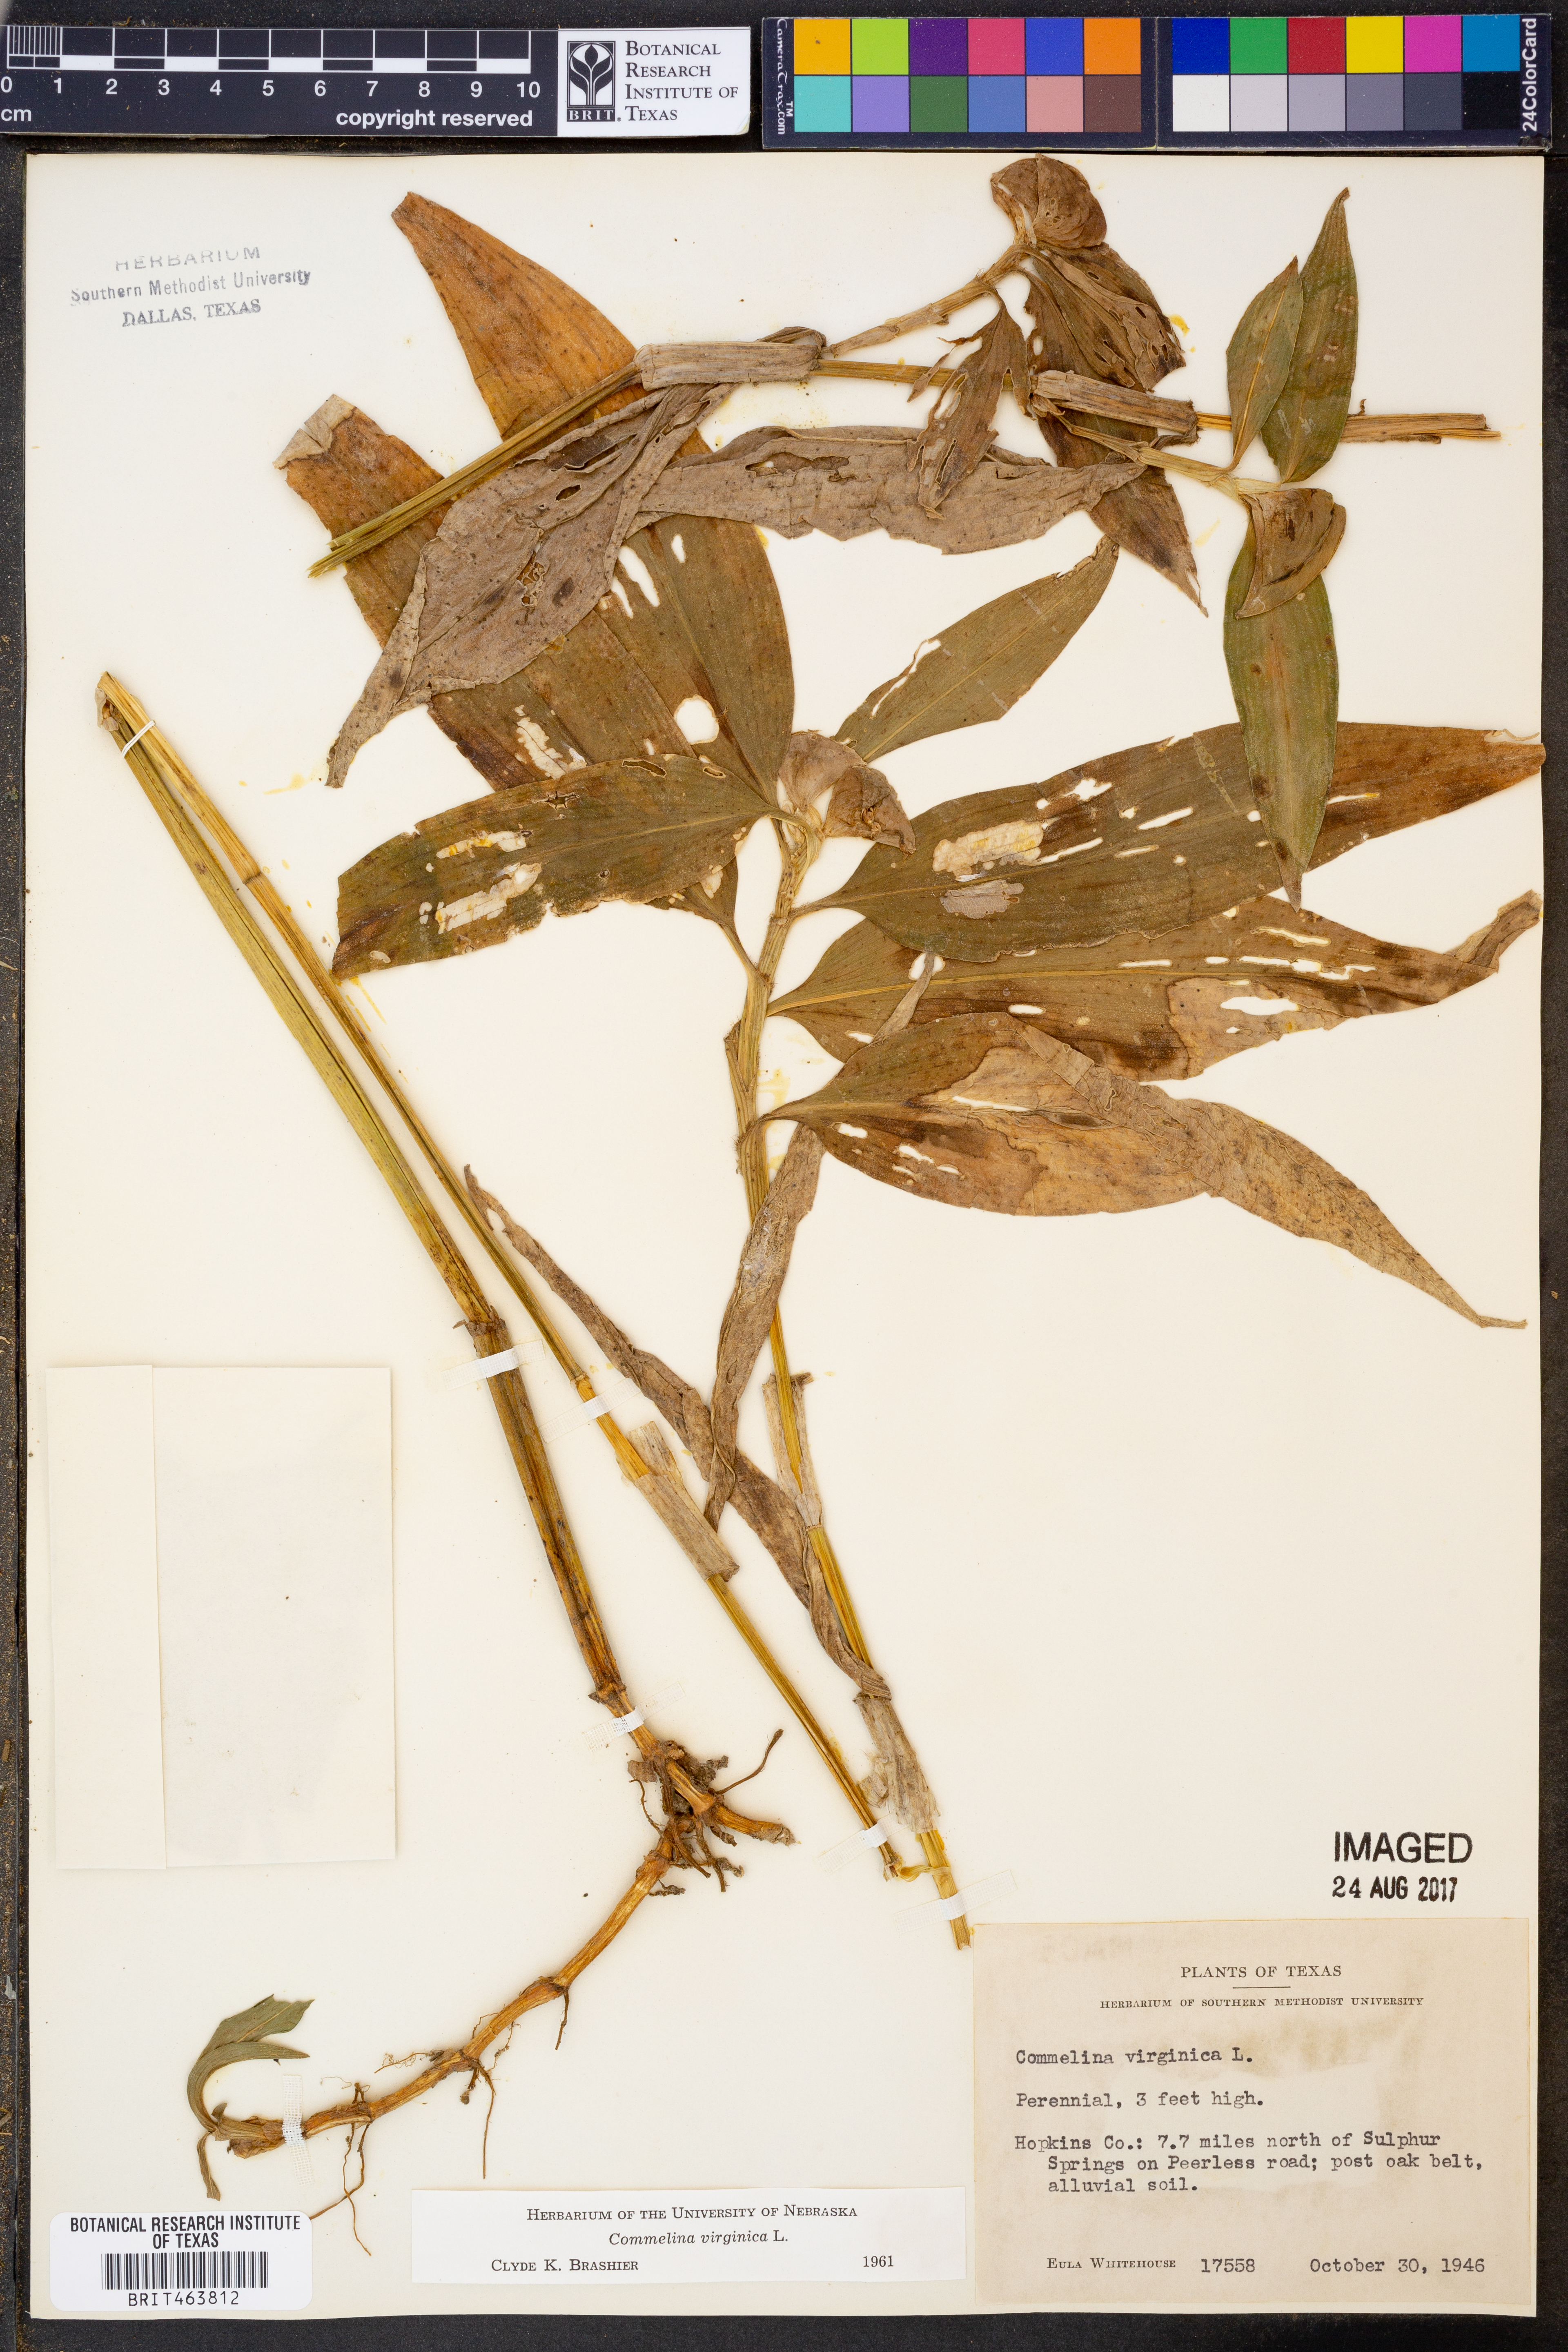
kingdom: Plantae
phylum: Tracheophyta
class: Liliopsida
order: Commelinales
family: Commelinaceae
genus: Commelina
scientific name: Commelina virginica
